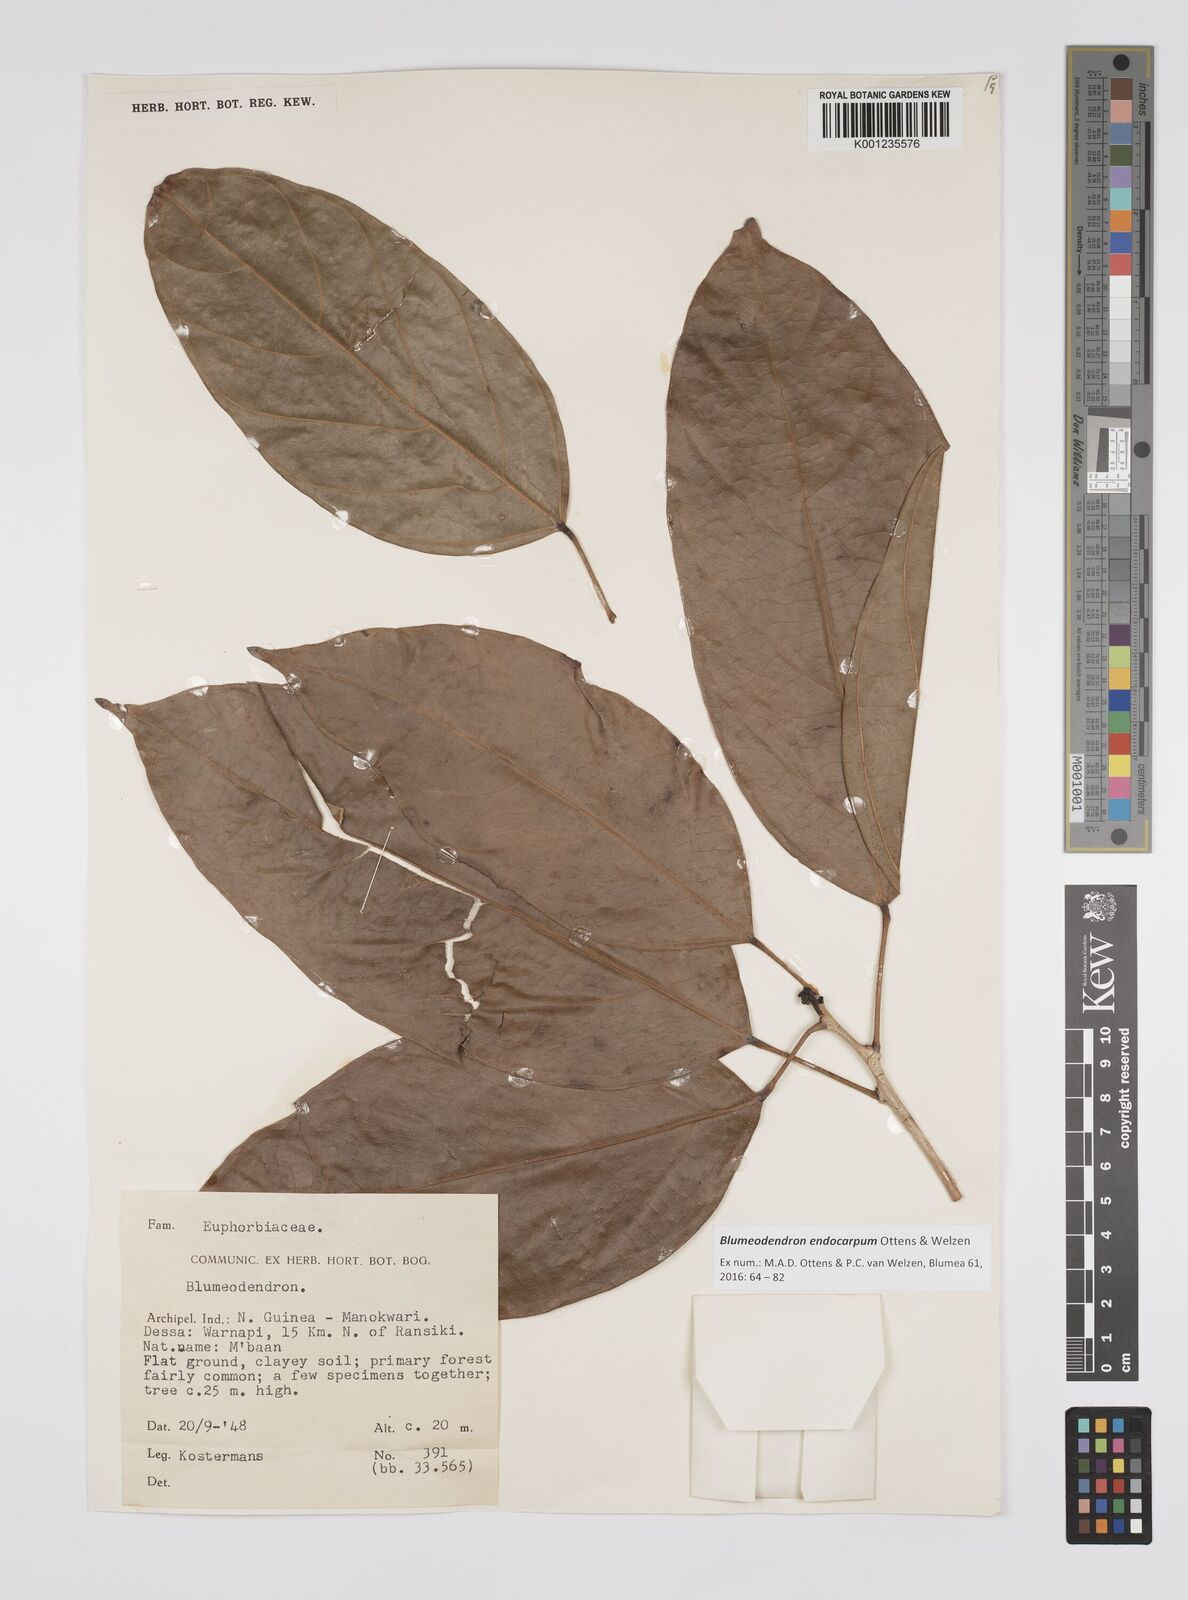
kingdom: Plantae
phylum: Tracheophyta
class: Magnoliopsida
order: Malpighiales
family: Euphorbiaceae
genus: Blumeodendron
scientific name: Blumeodendron endocarpum
